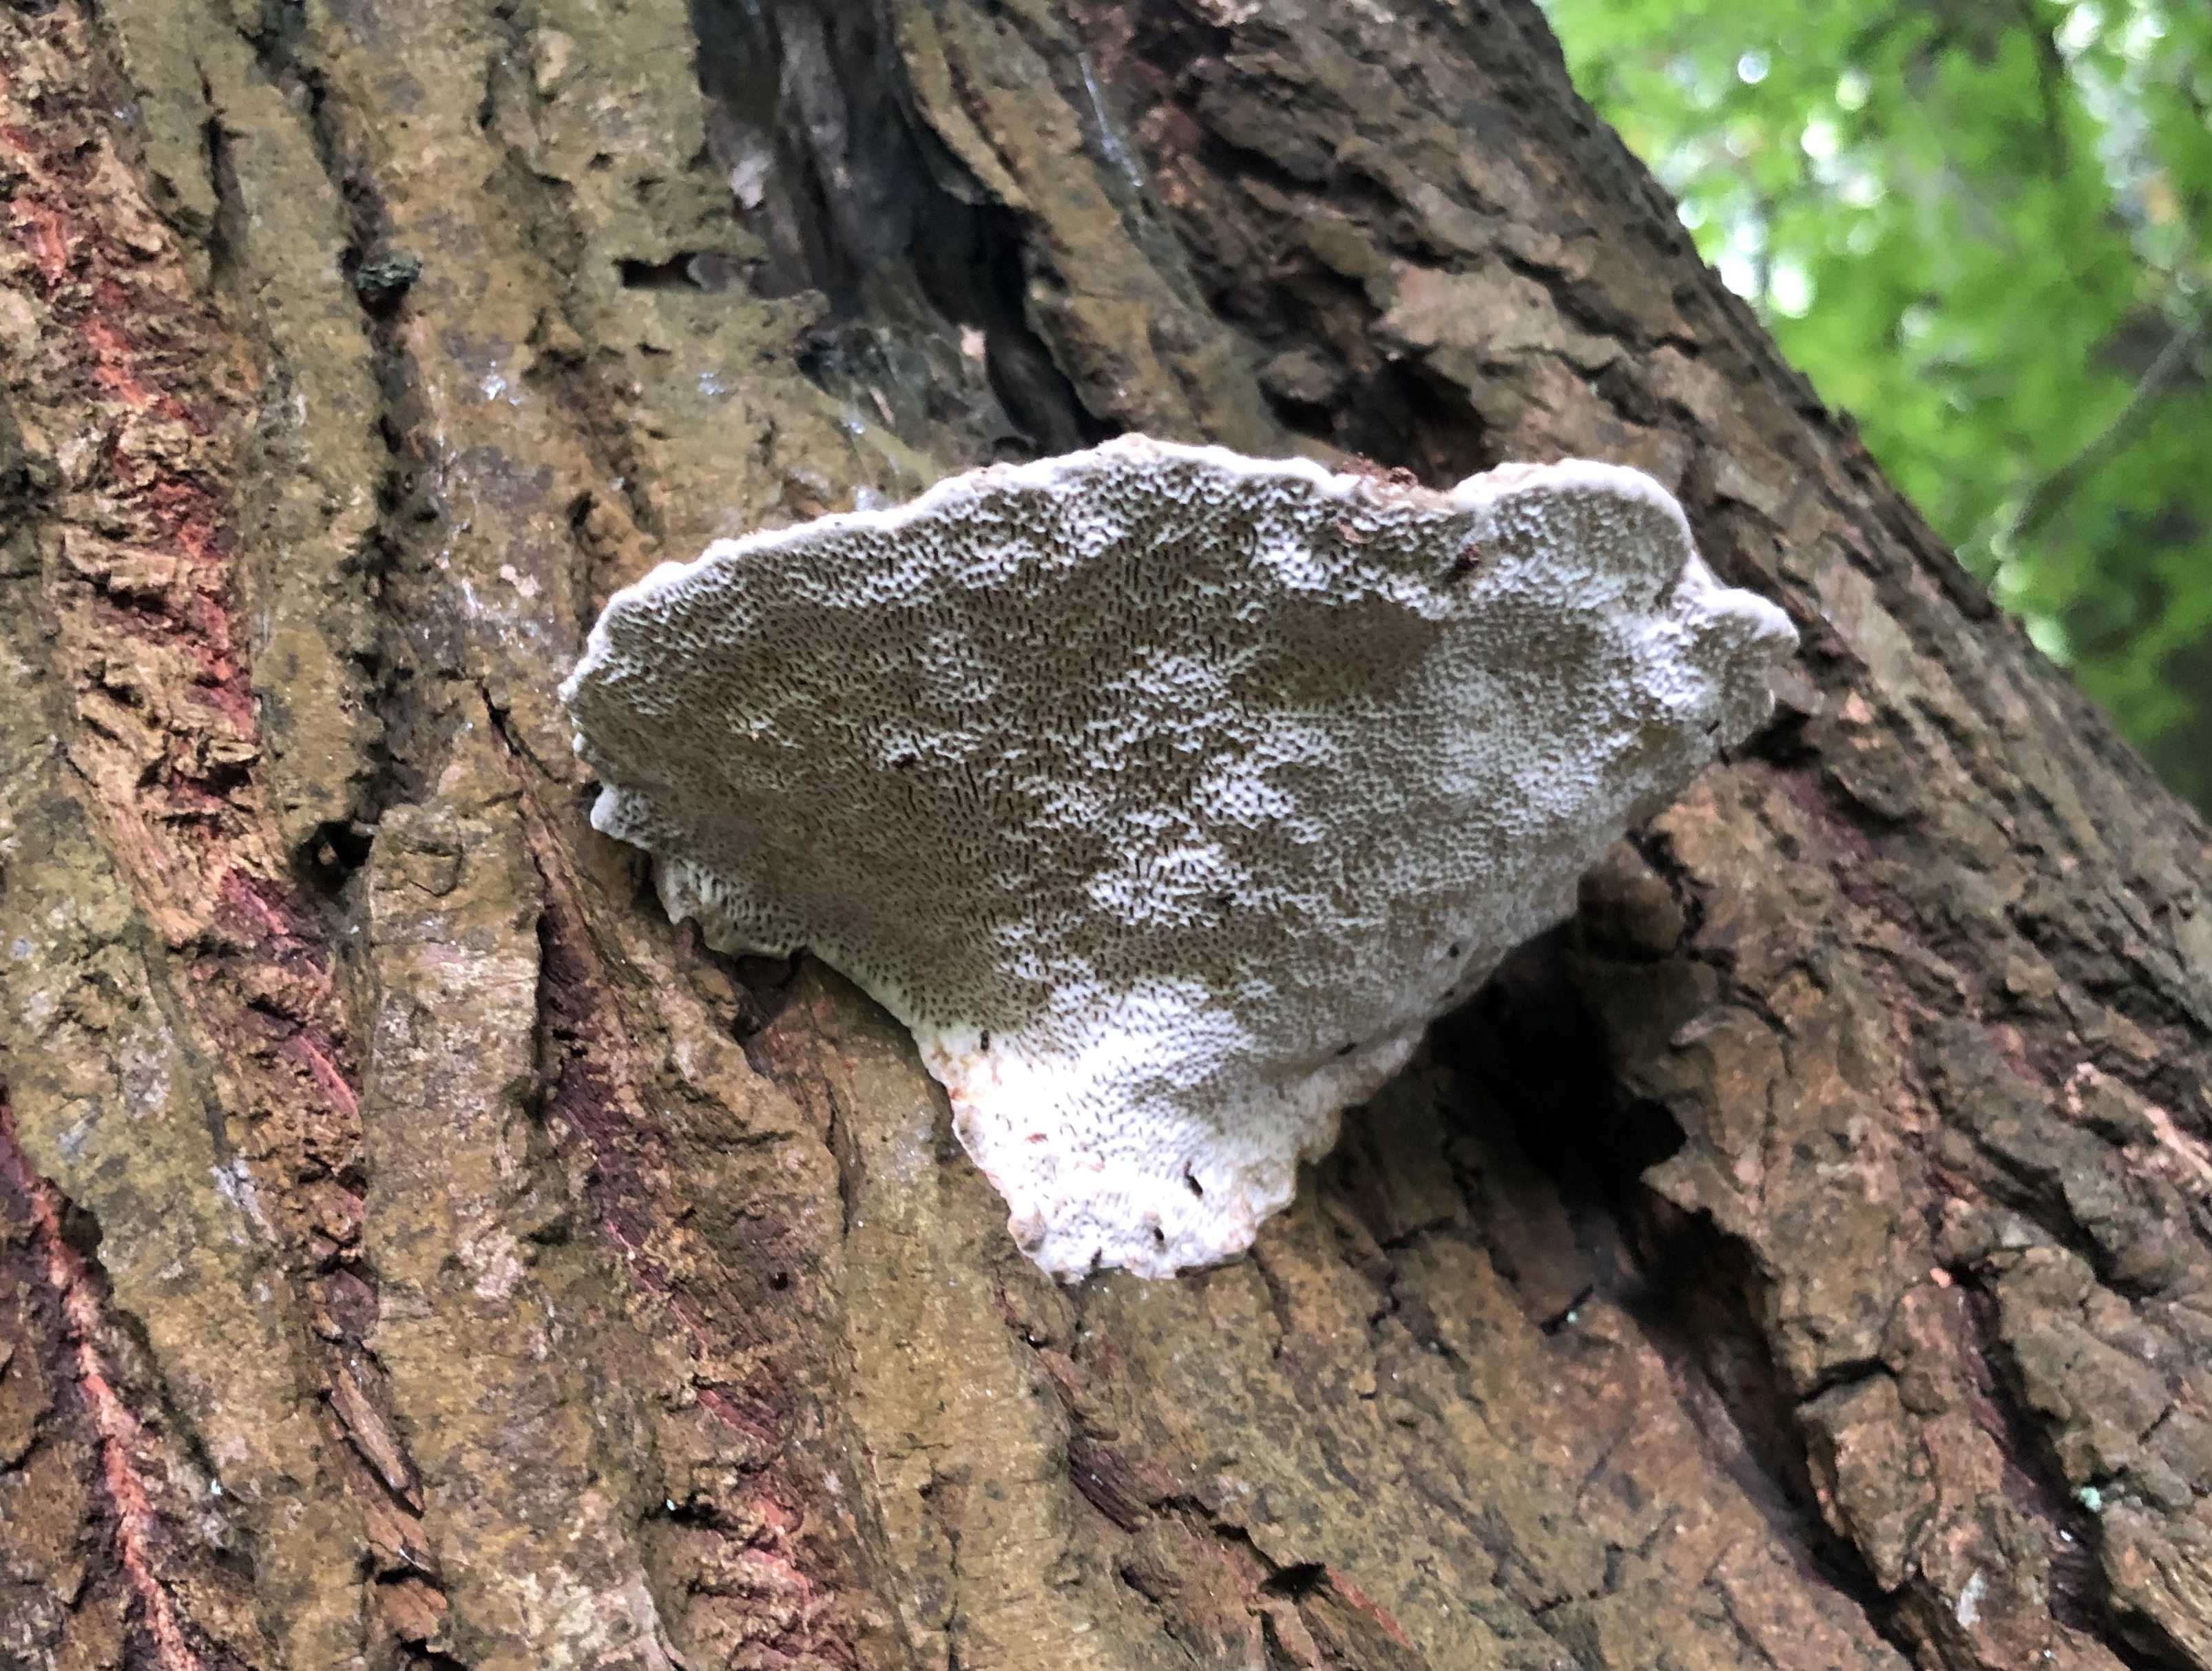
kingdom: Fungi
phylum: Basidiomycota
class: Agaricomycetes
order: Polyporales
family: Polyporaceae
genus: Daedaleopsis
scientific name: Daedaleopsis confragosa
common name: rødmende læderporesvamp
